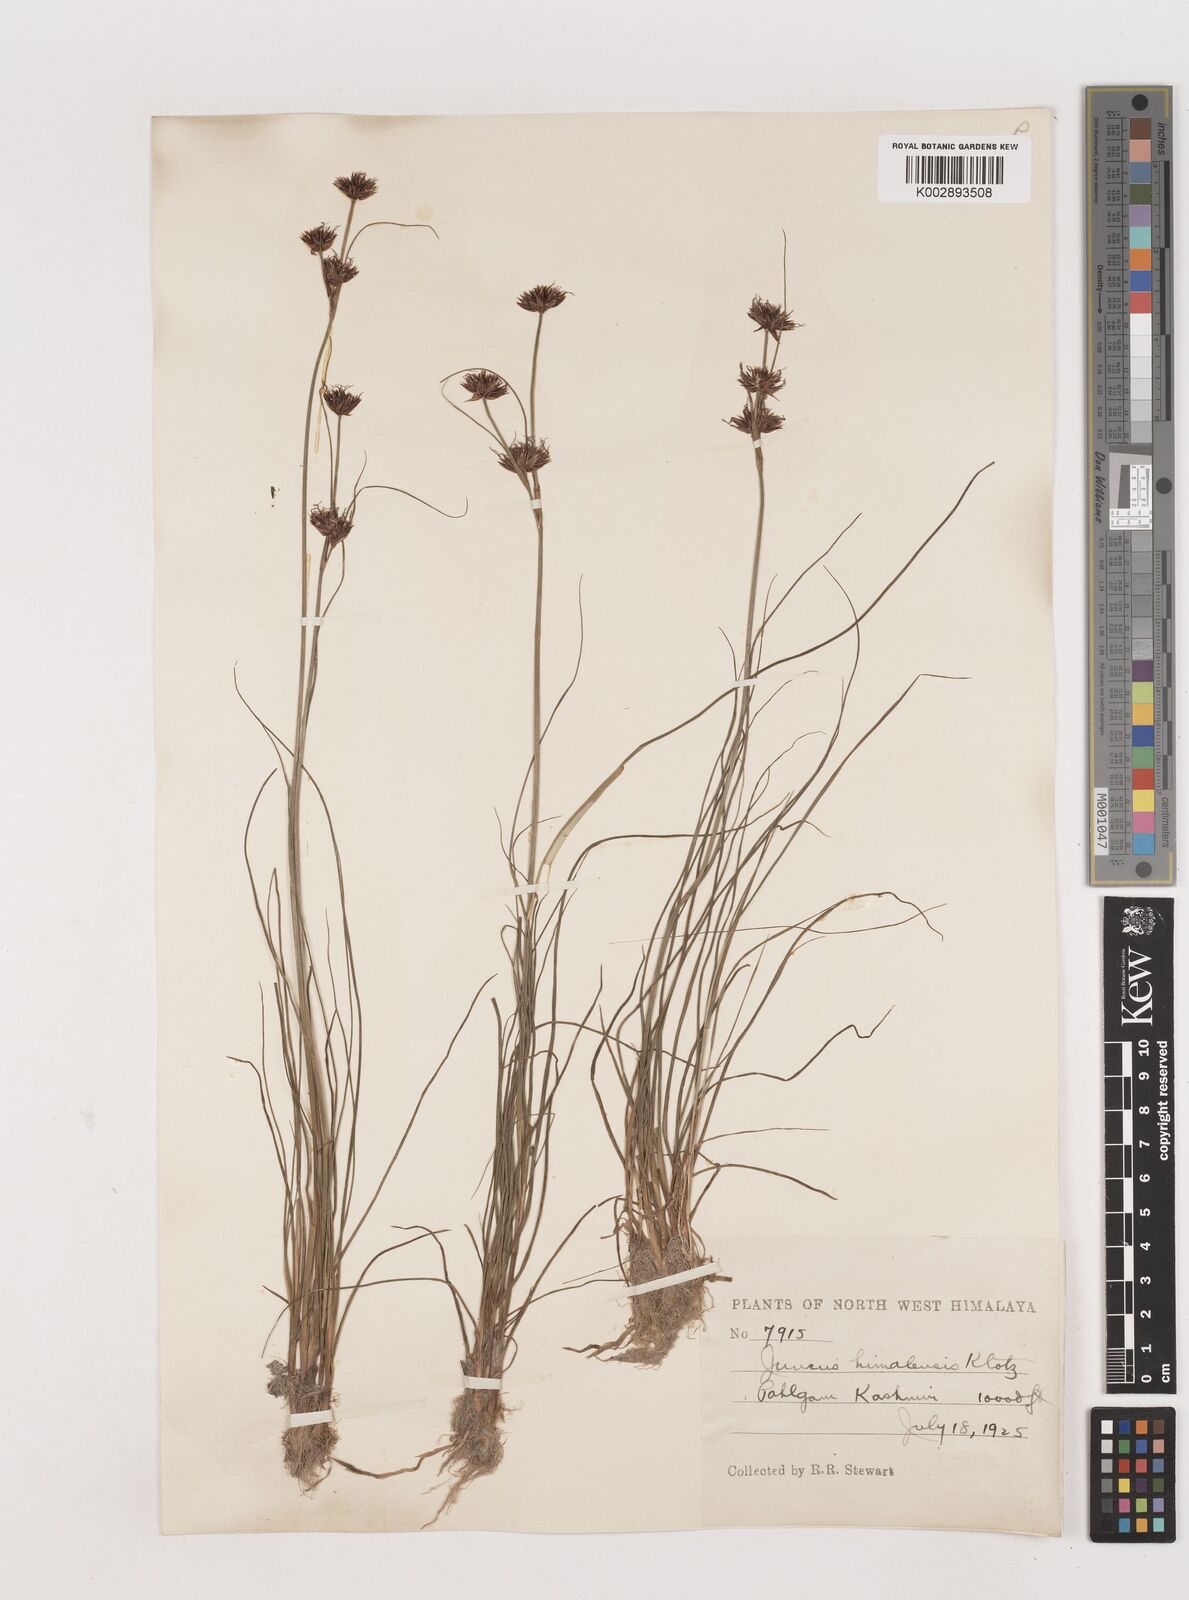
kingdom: Plantae
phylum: Tracheophyta
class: Liliopsida
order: Poales
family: Juncaceae
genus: Juncus
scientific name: Juncus himalensis
